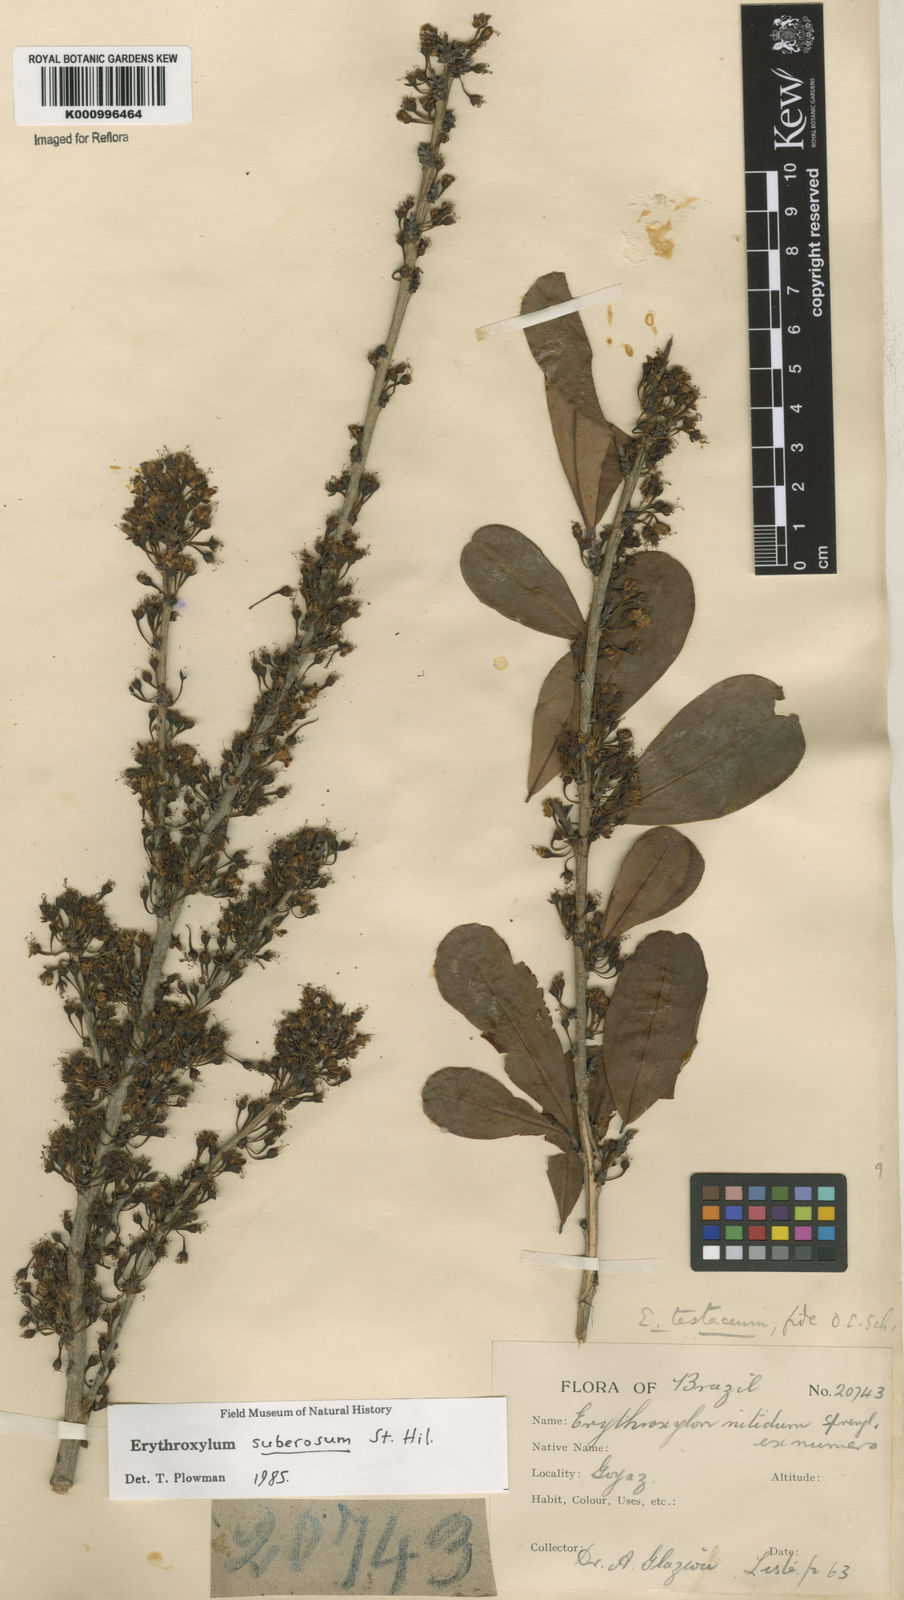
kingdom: Plantae
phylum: Tracheophyta
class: Magnoliopsida
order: Malpighiales
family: Erythroxylaceae
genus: Erythroxylum
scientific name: Erythroxylum suberosum
